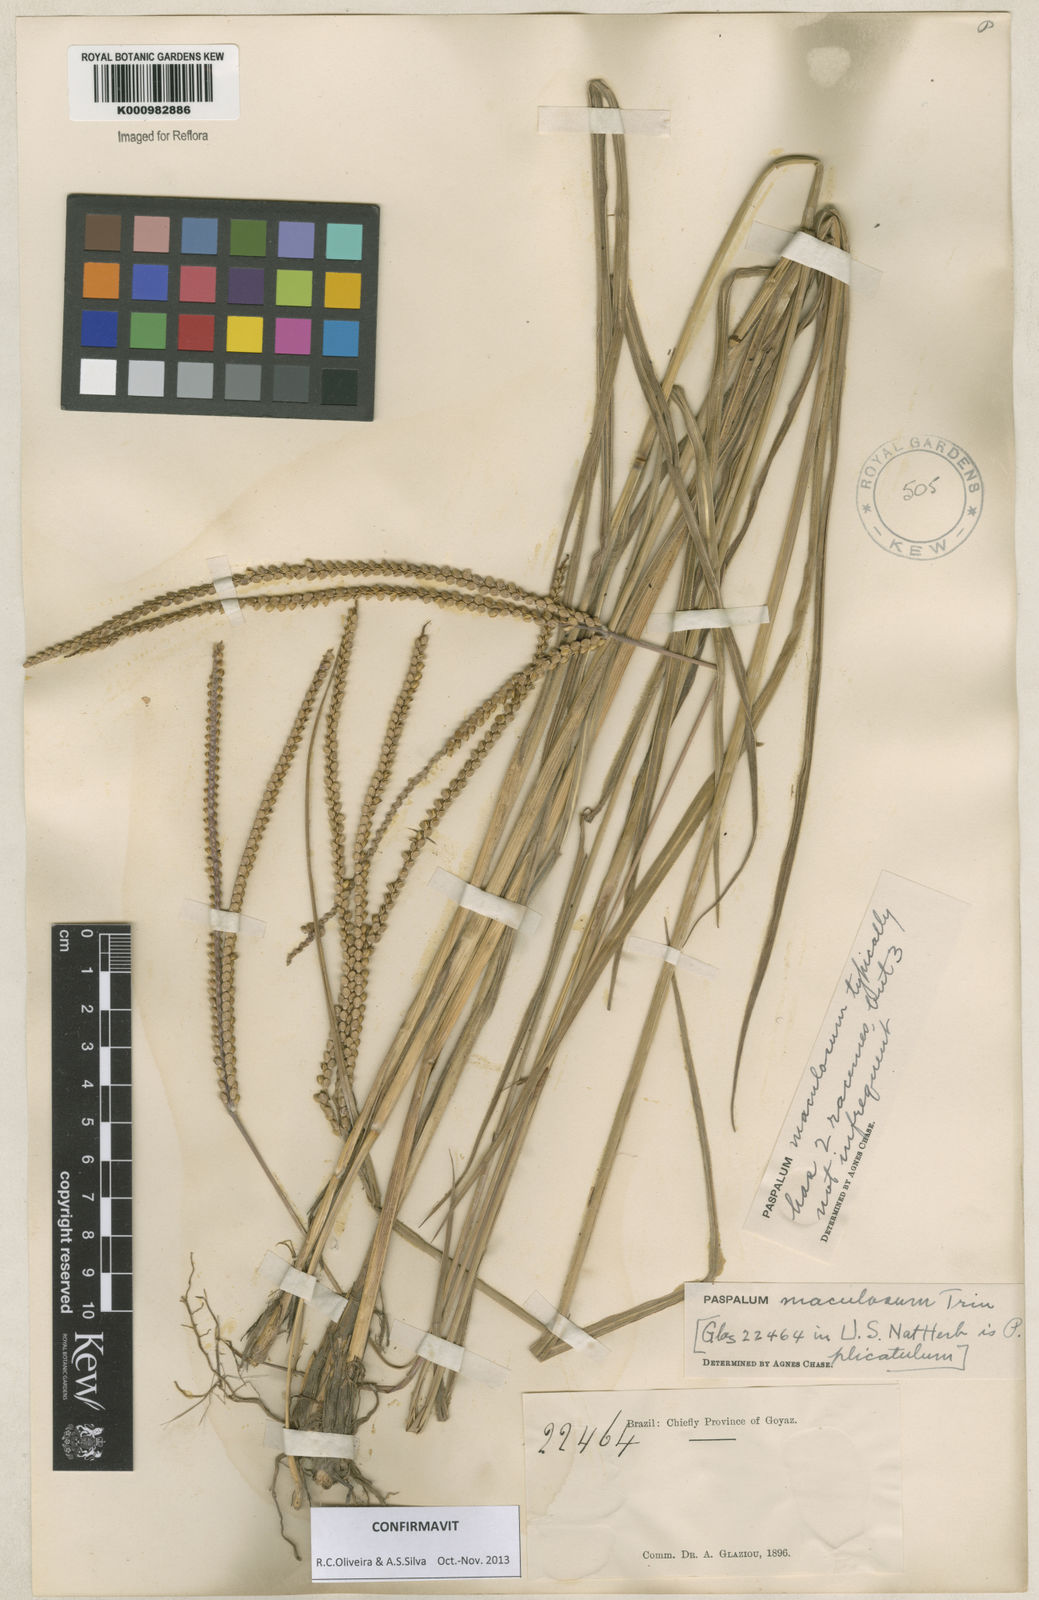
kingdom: Plantae
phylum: Tracheophyta
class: Liliopsida
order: Poales
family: Poaceae
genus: Paspalum
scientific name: Paspalum maculosum
